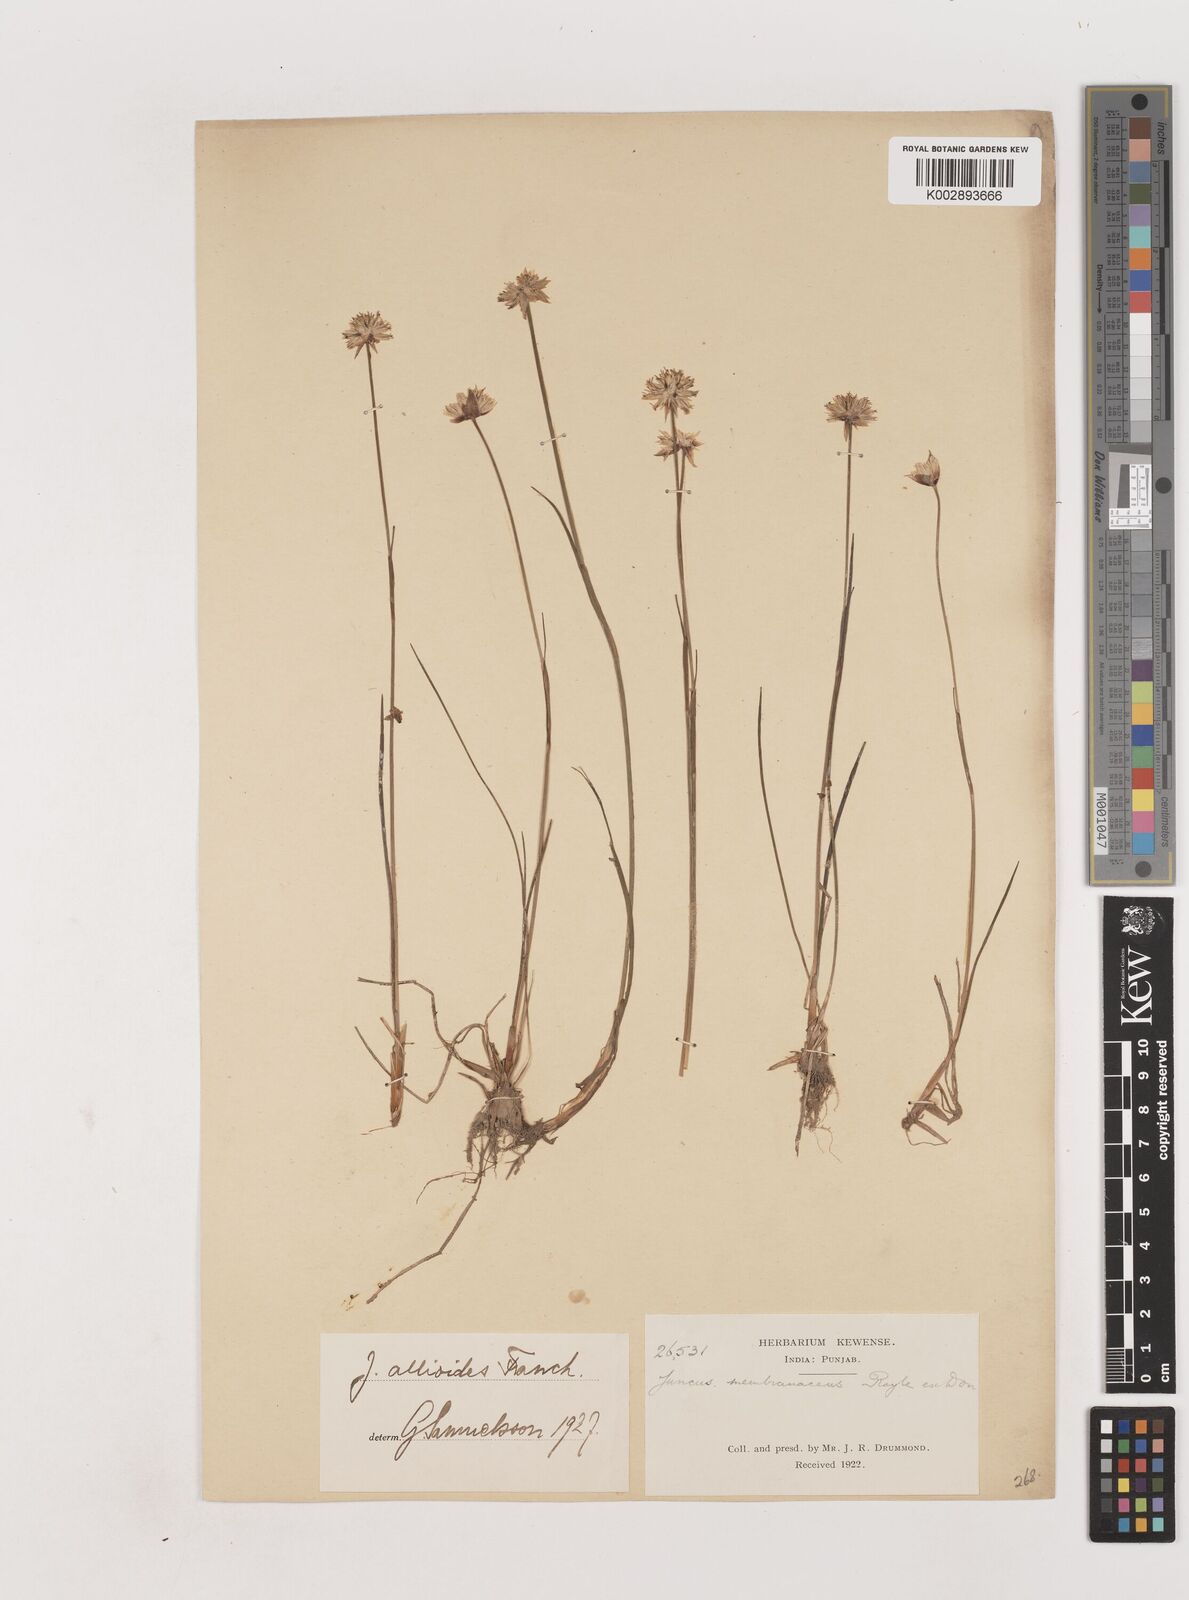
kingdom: Plantae
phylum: Tracheophyta
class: Liliopsida
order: Poales
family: Juncaceae
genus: Juncus
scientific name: Juncus allioides
